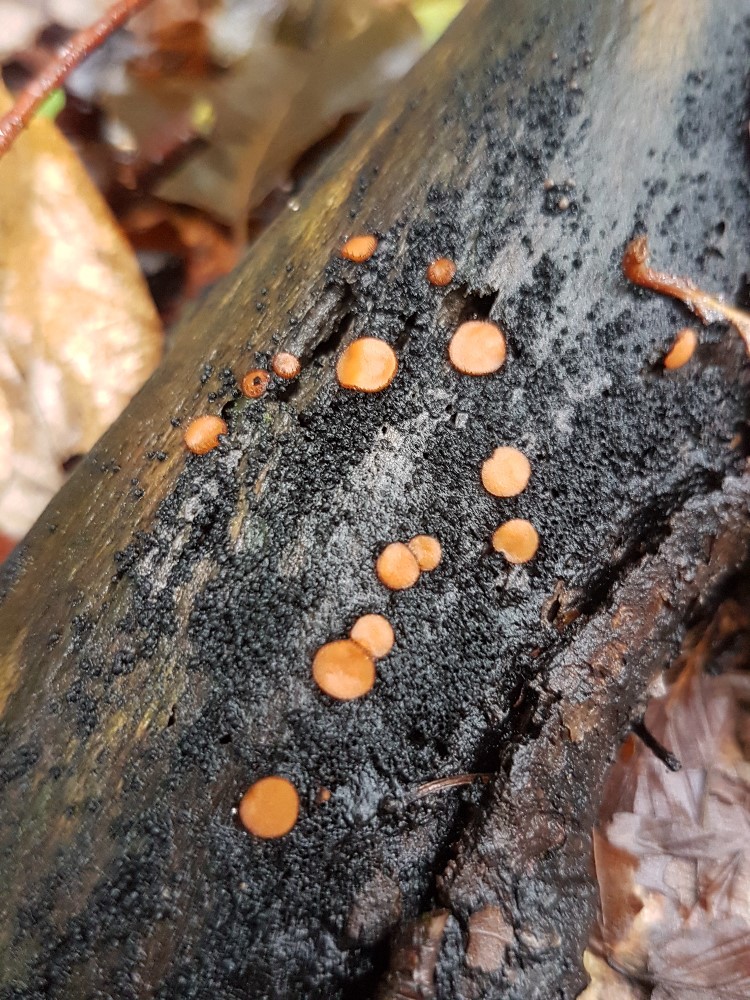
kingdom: Fungi
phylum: Ascomycota
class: Pezizomycetes
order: Pezizales
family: Pyronemataceae
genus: Scutellinia
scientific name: Scutellinia
